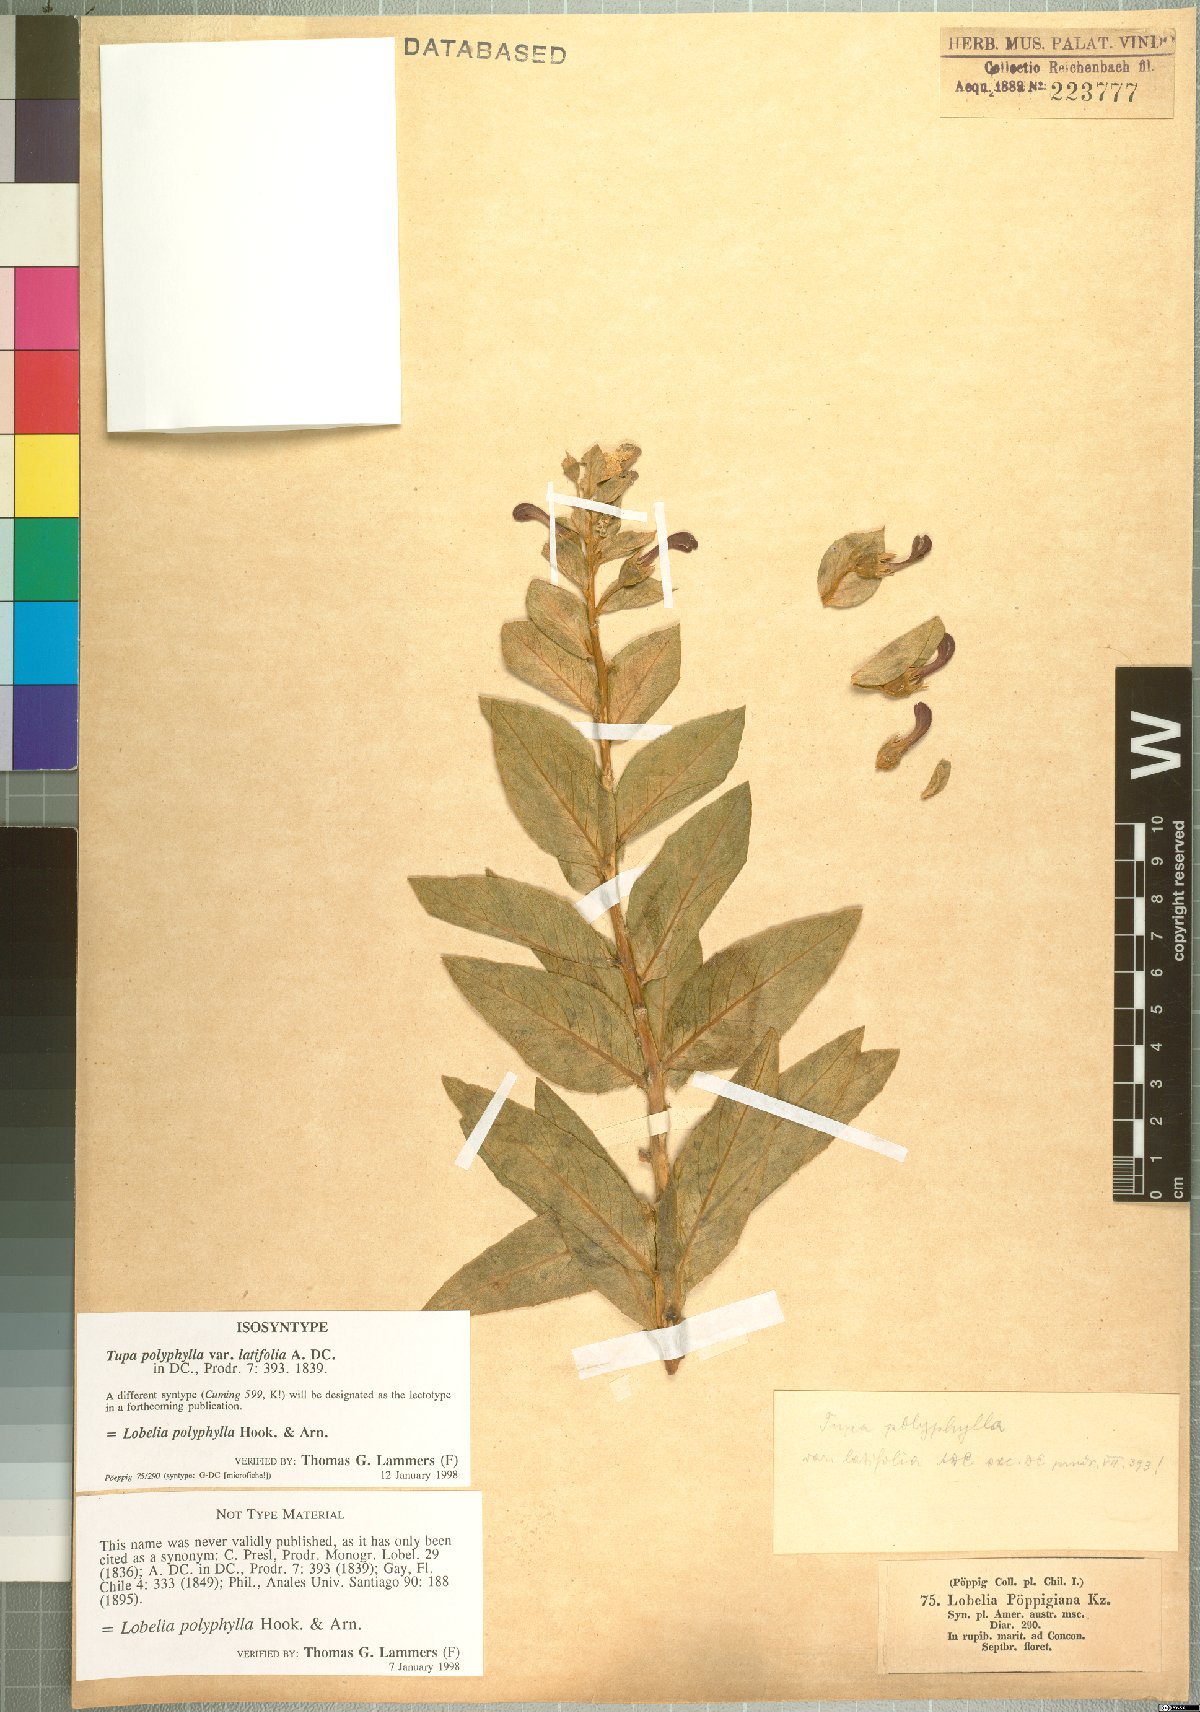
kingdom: Plantae
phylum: Tracheophyta
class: Magnoliopsida
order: Asterales
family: Campanulaceae
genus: Lobelia
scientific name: Lobelia polyphylla
